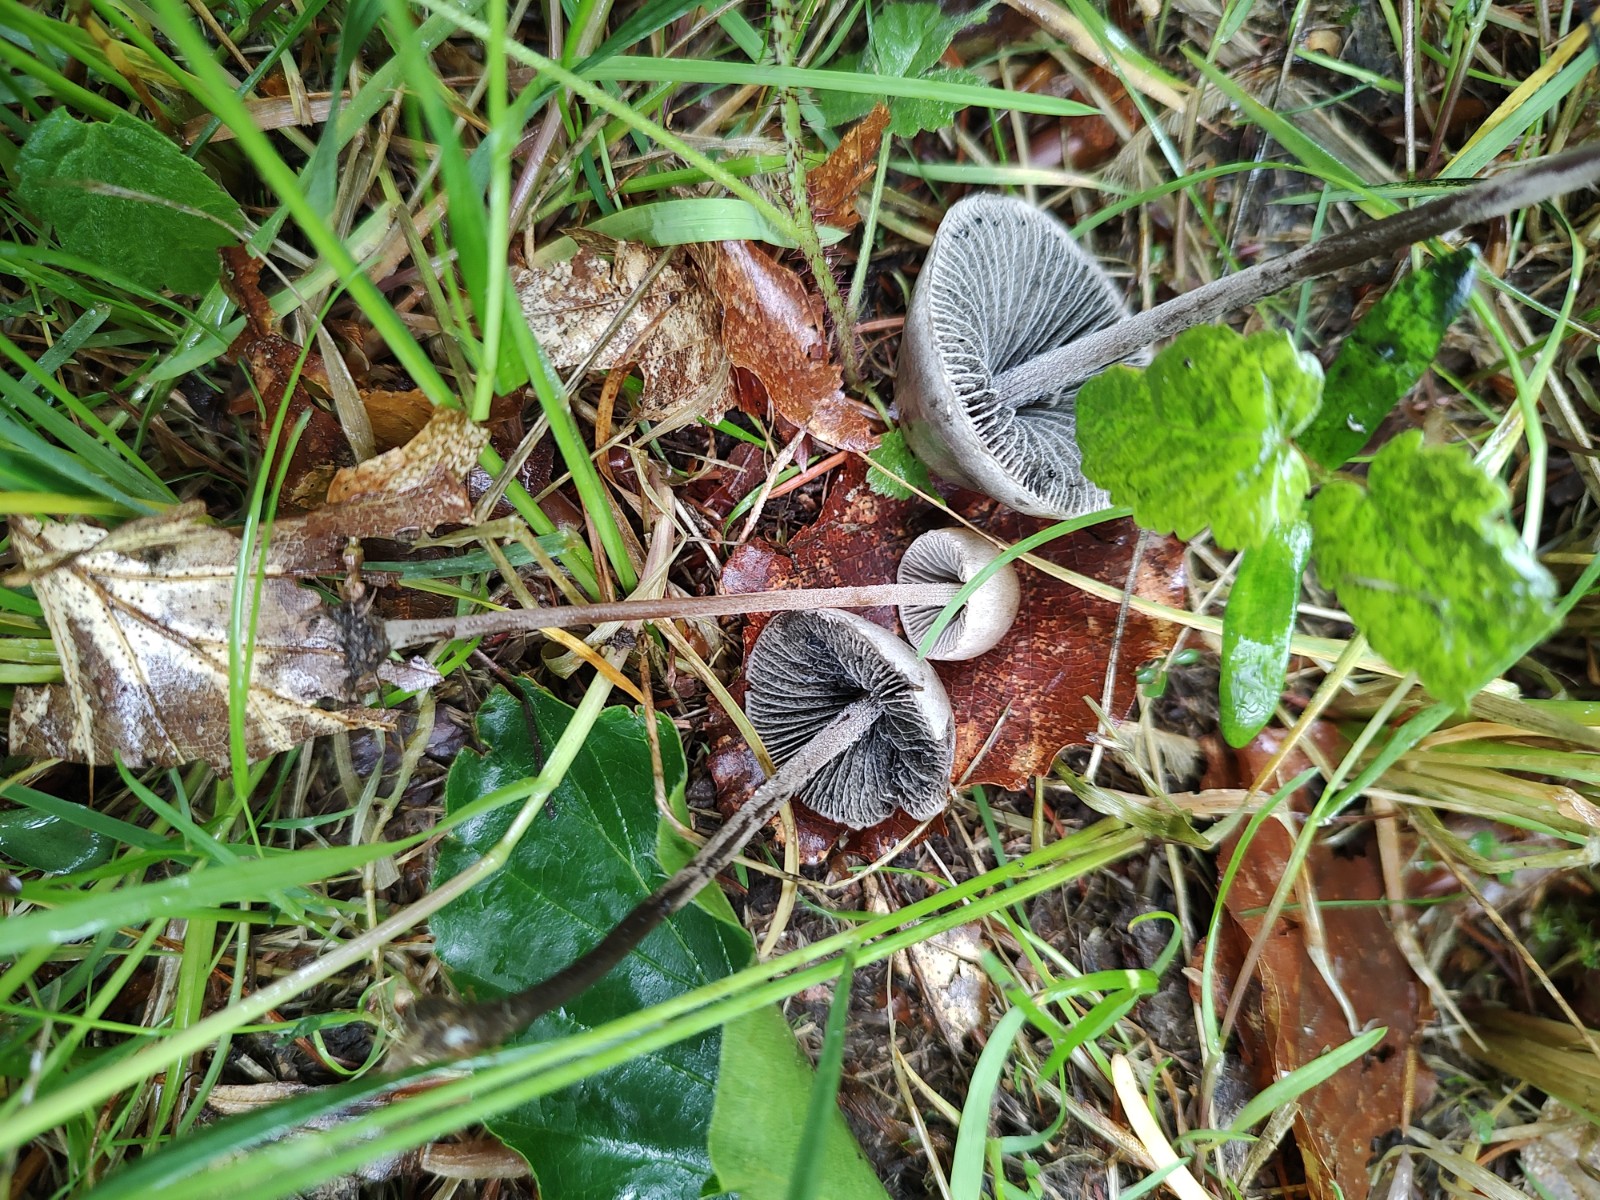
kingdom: Fungi
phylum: Basidiomycota
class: Agaricomycetes
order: Agaricales
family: Bolbitiaceae
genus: Panaeolus
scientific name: Panaeolus papilionaceus
